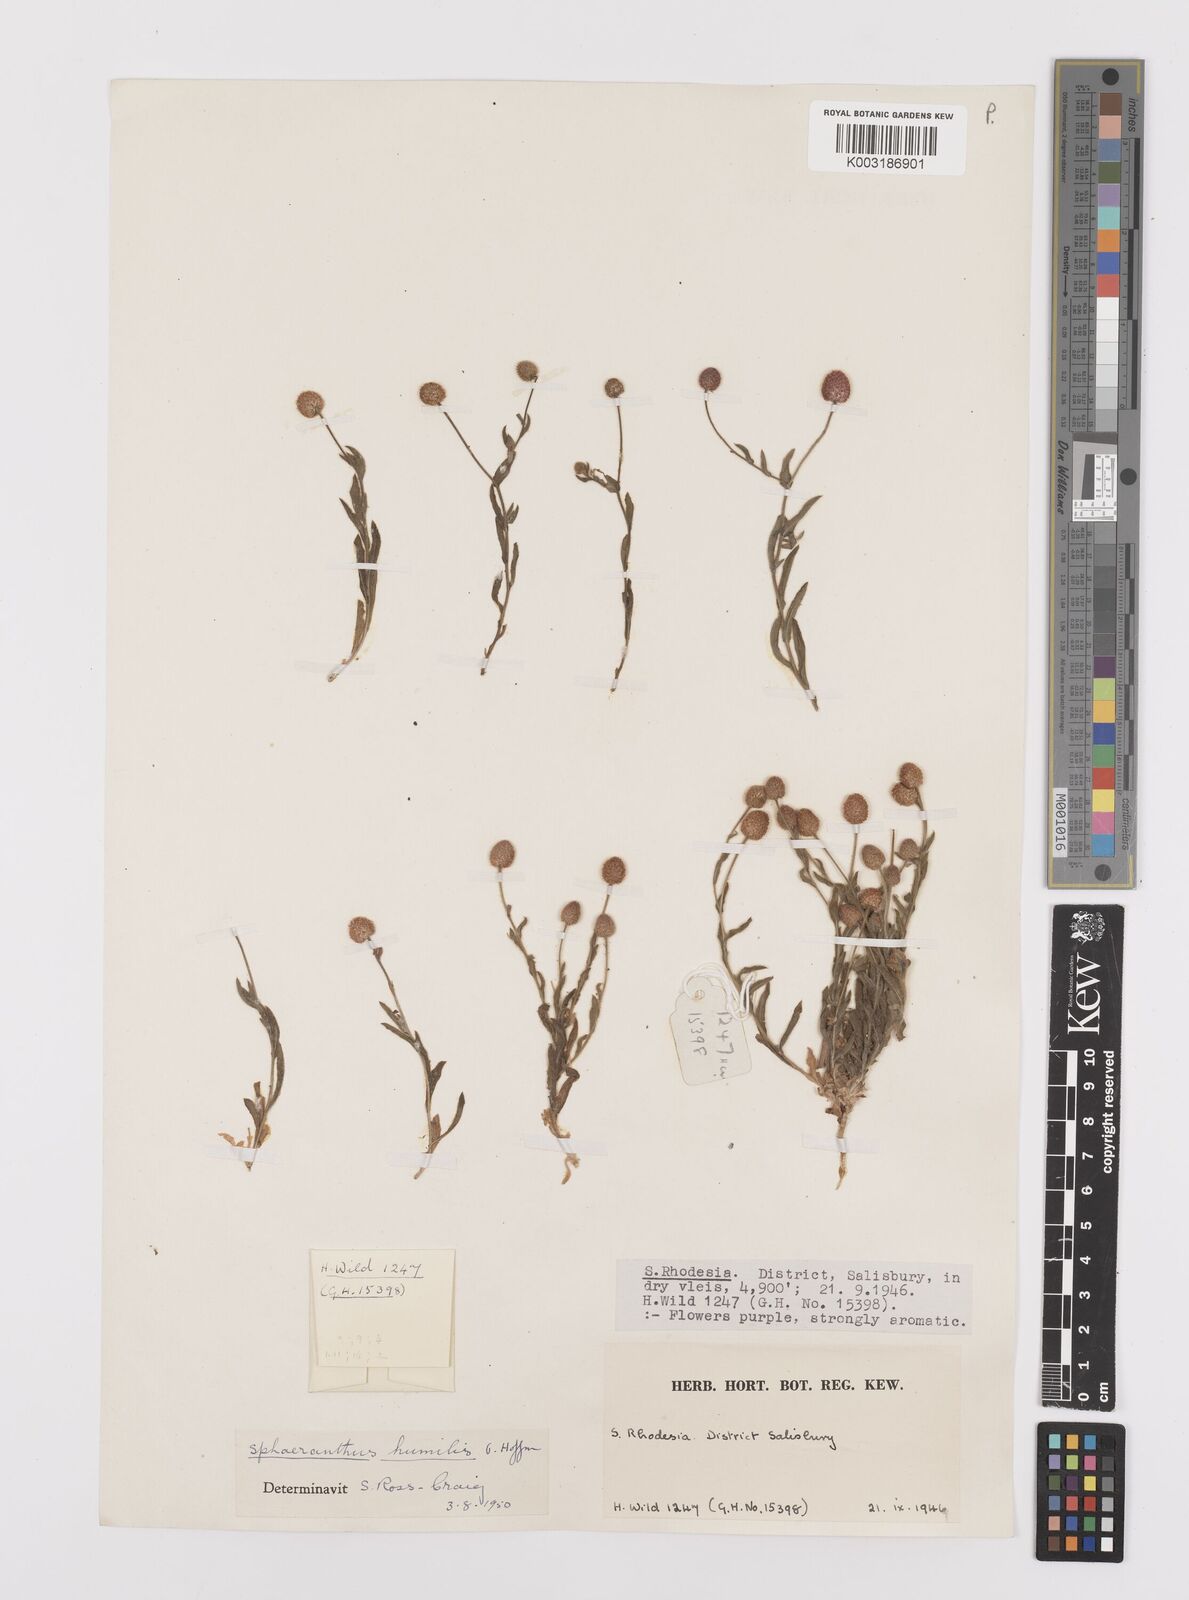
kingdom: Plantae
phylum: Tracheophyta
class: Magnoliopsida
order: Asterales
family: Asteraceae
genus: Sphaeranthus
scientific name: Sphaeranthus flexuosus
